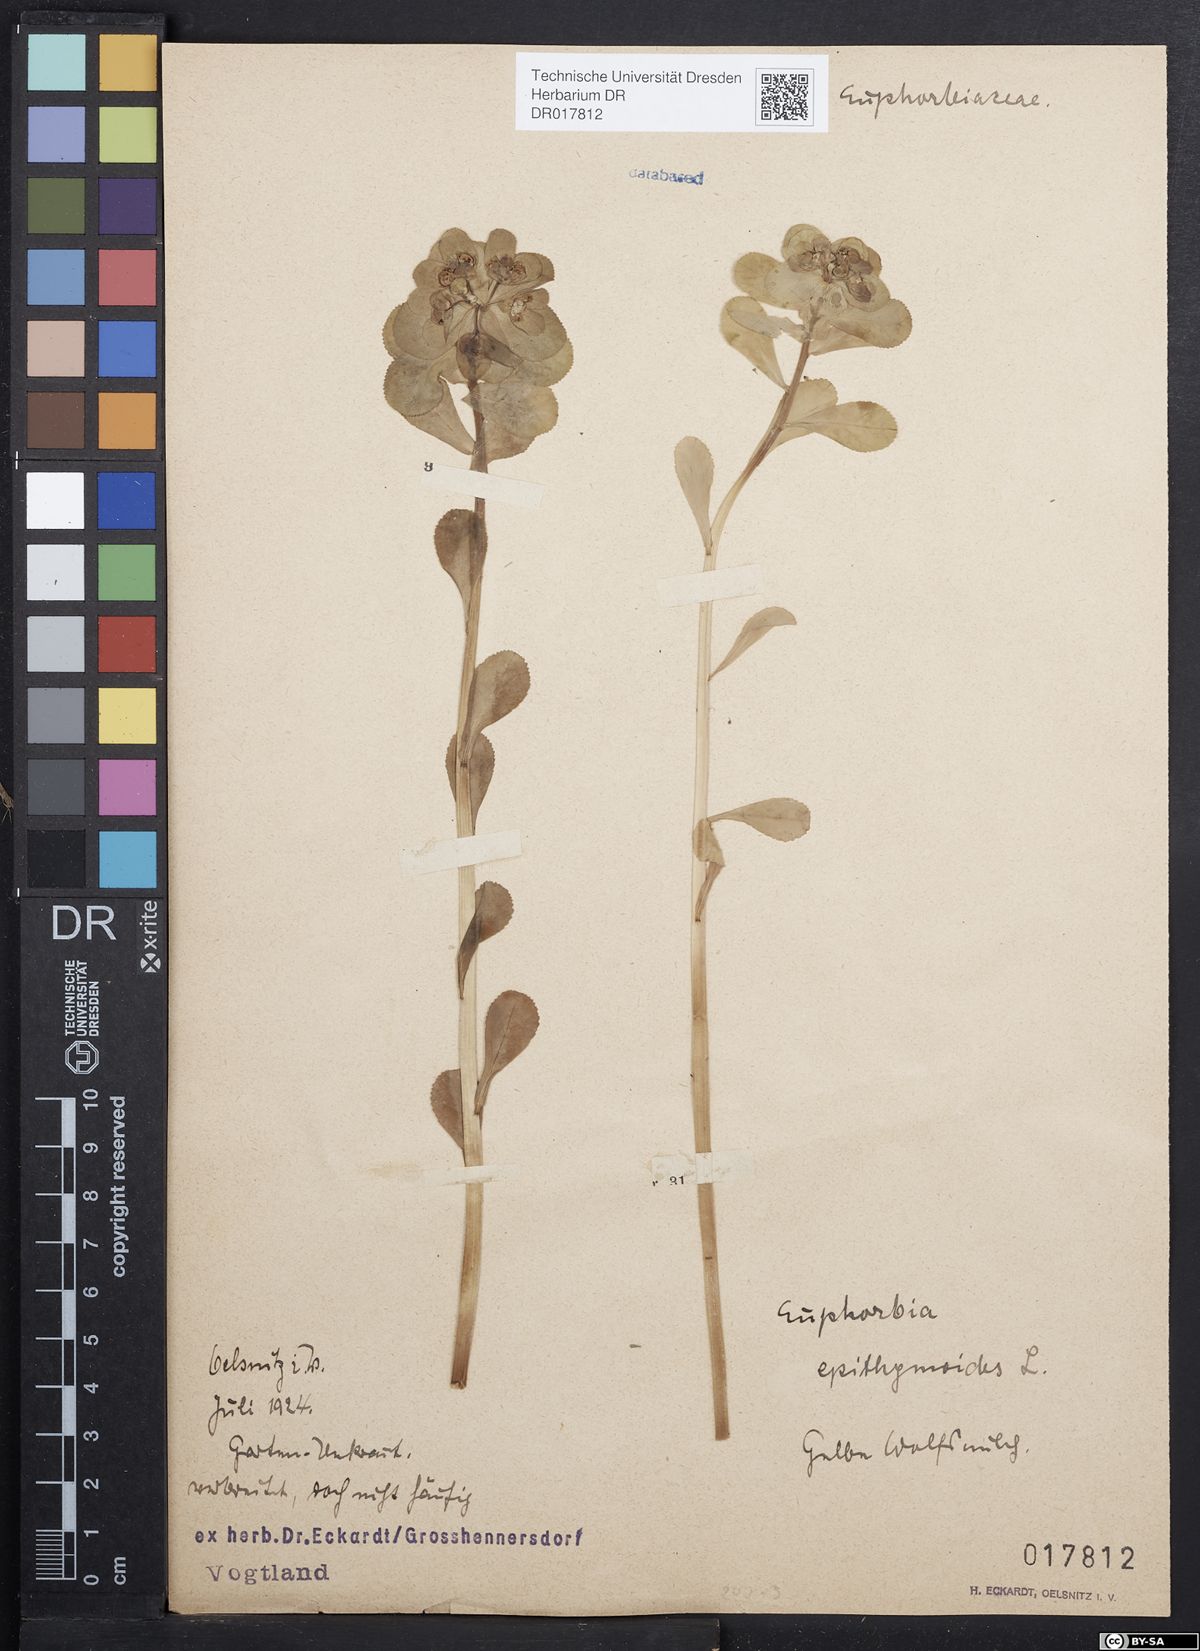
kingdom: Plantae
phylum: Tracheophyta
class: Magnoliopsida
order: Malpighiales
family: Euphorbiaceae
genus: Euphorbia
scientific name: Euphorbia helioscopia
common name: Sun spurge
